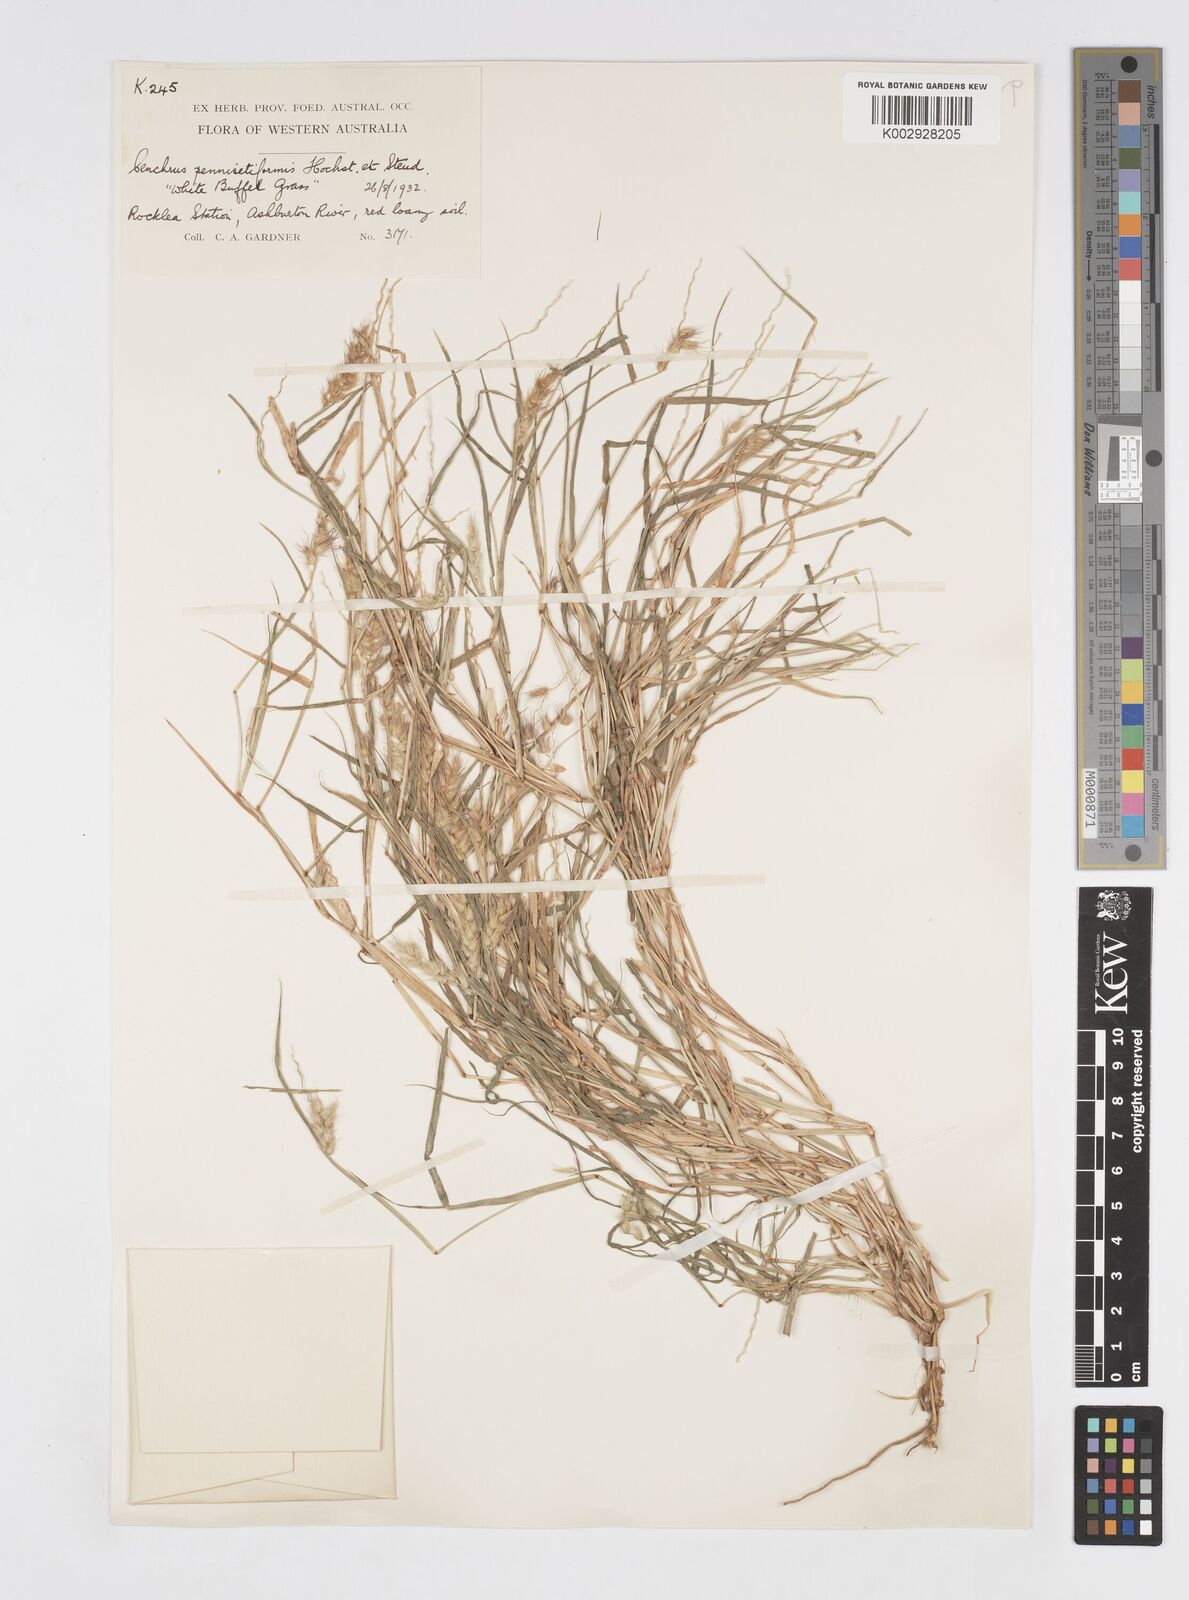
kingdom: Plantae
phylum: Tracheophyta
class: Liliopsida
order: Poales
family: Poaceae
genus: Cenchrus
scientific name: Cenchrus pennisetiformis
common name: Cloncurry
